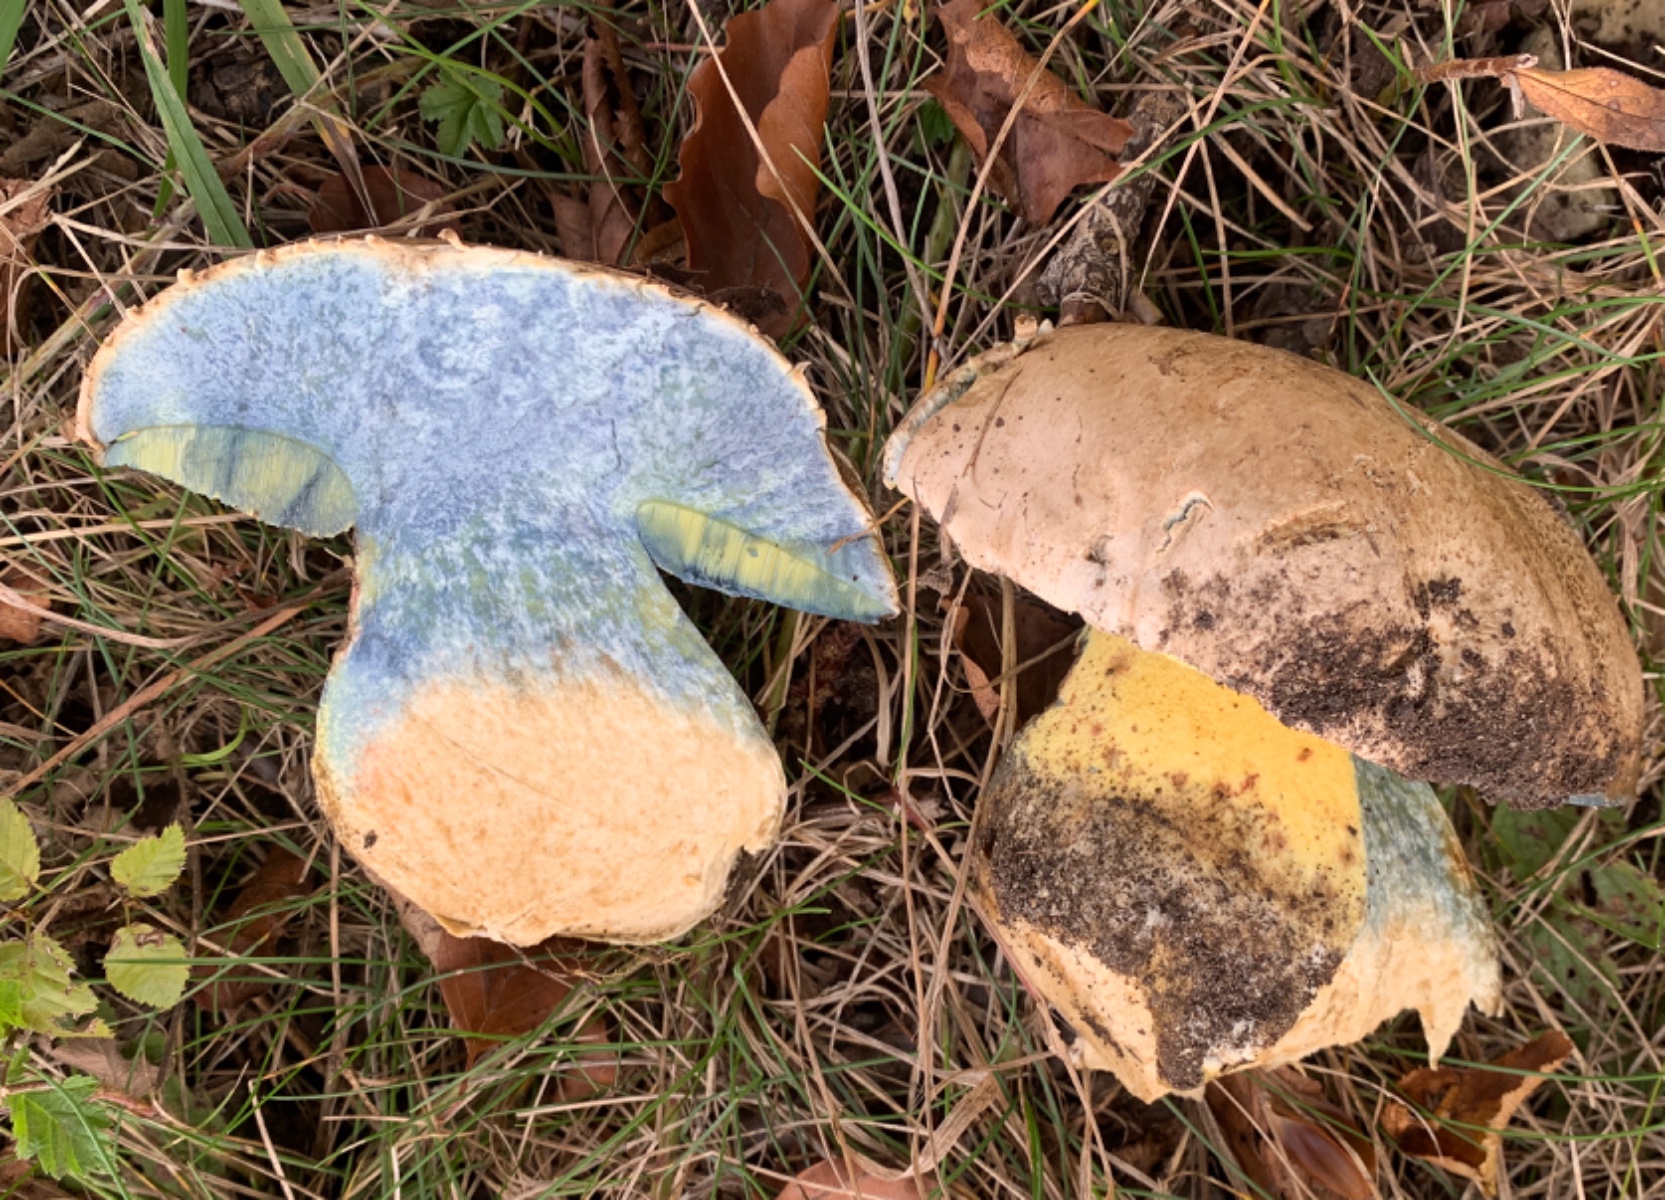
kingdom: Fungi
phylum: Basidiomycota
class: Agaricomycetes
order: Boletales
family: Boletaceae
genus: Caloboletus
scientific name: Caloboletus radicans
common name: rod-rørhat
